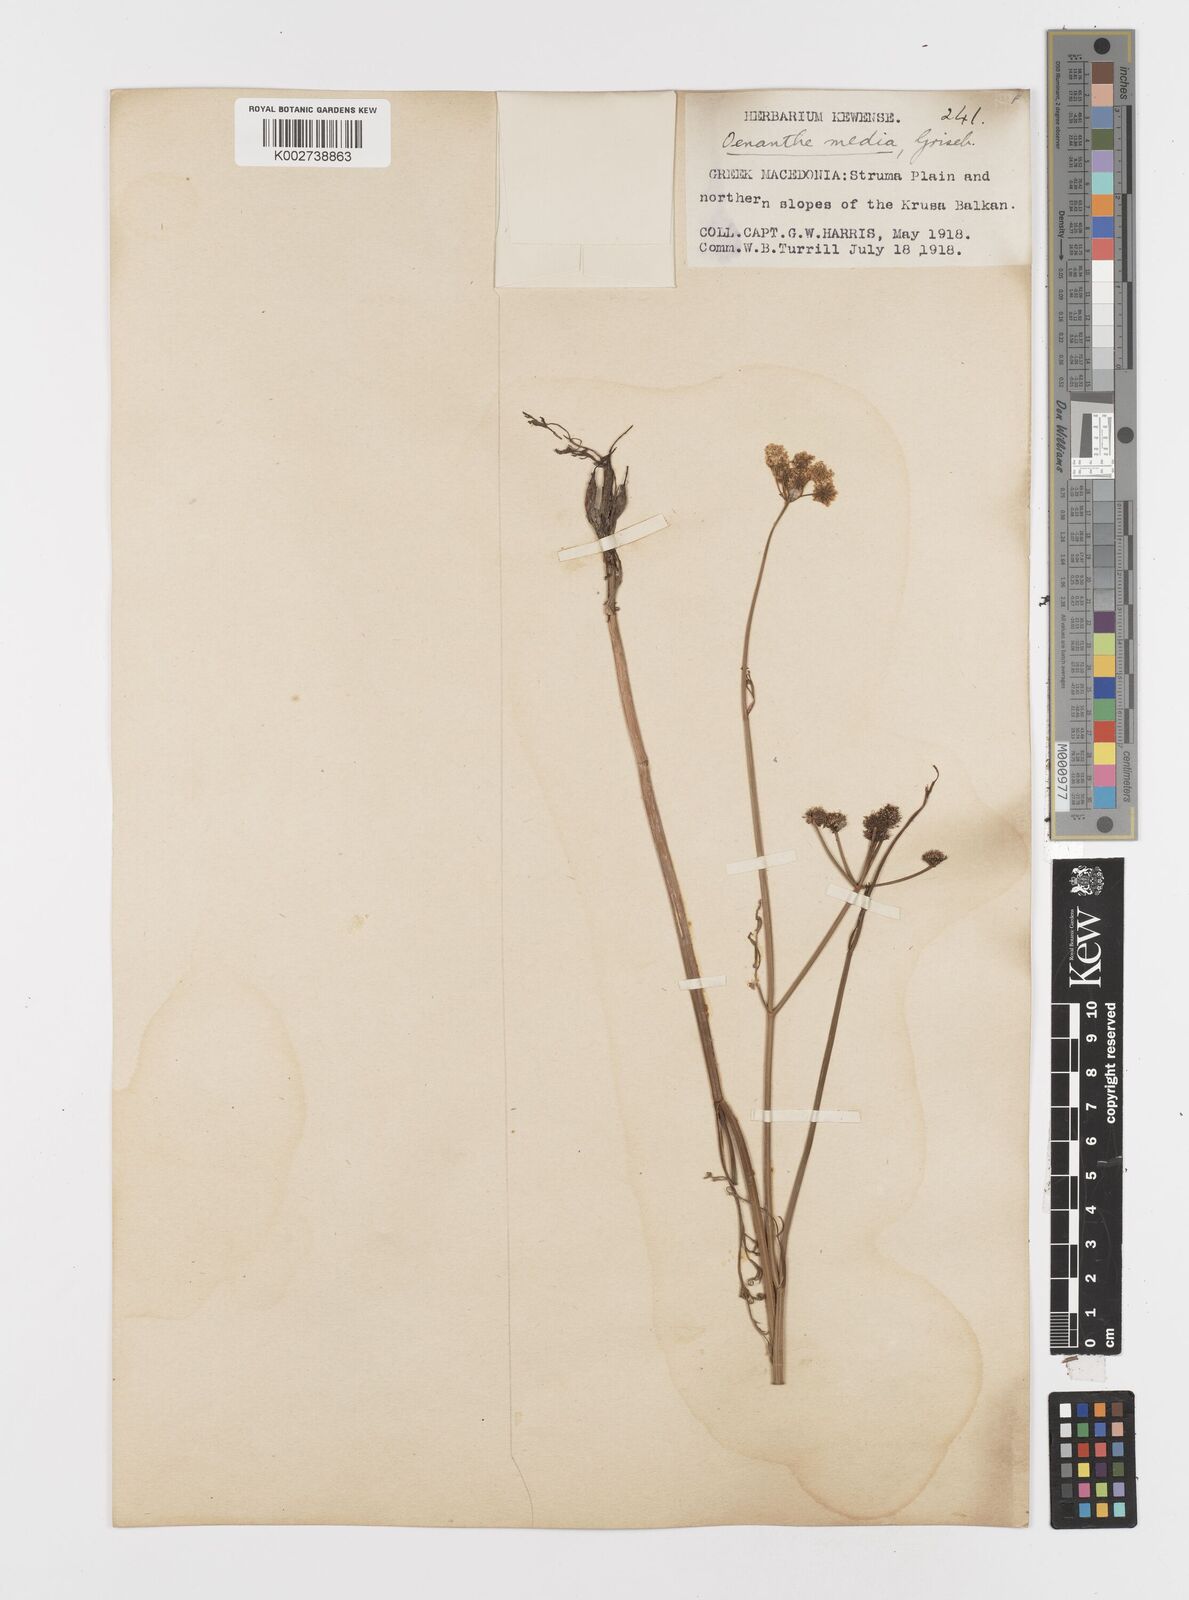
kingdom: Plantae
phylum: Tracheophyta
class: Magnoliopsida
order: Apiales
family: Apiaceae
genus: Oenanthe
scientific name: Oenanthe silaifolia
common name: Narrow-leaved water-dropwort
